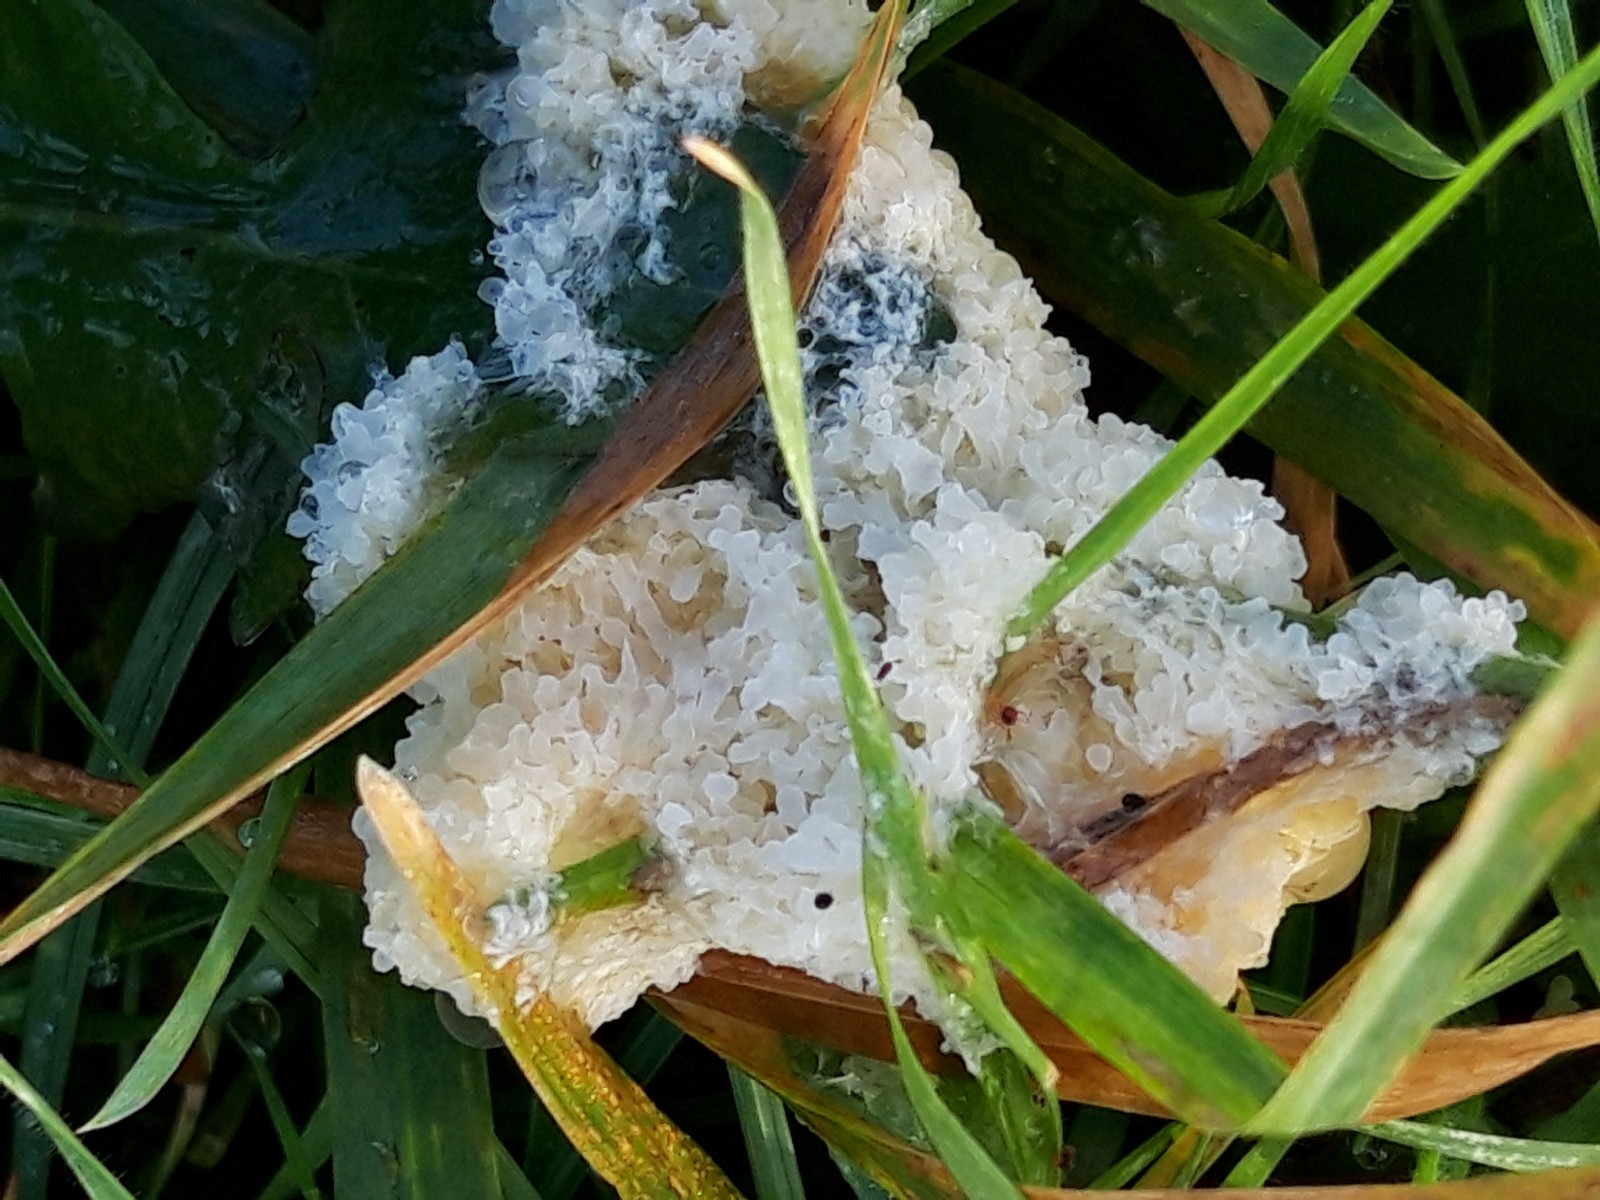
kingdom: Protozoa
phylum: Mycetozoa
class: Myxomycetes
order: Physarales
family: Physaraceae
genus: Didymium
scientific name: Didymium
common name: urteskum
